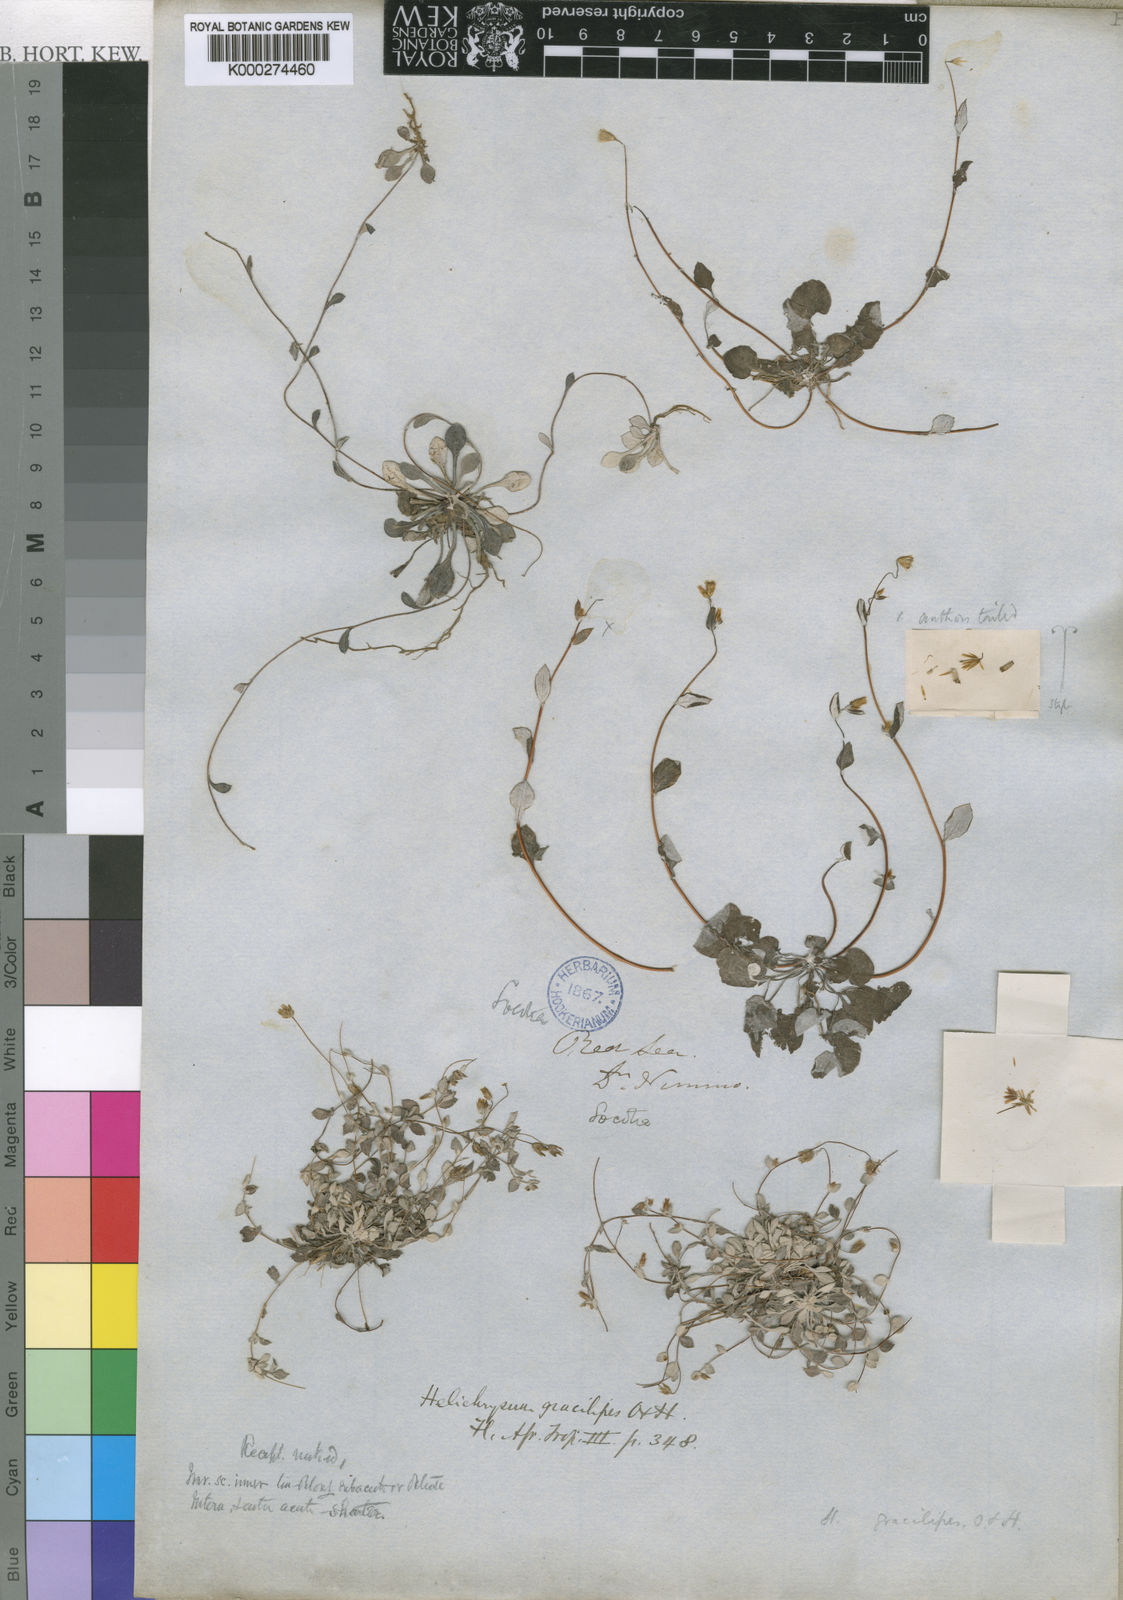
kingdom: Plantae
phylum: Tracheophyta
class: Magnoliopsida
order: Asterales
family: Asteraceae
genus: Libinhania
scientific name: Libinhania gracilipes
